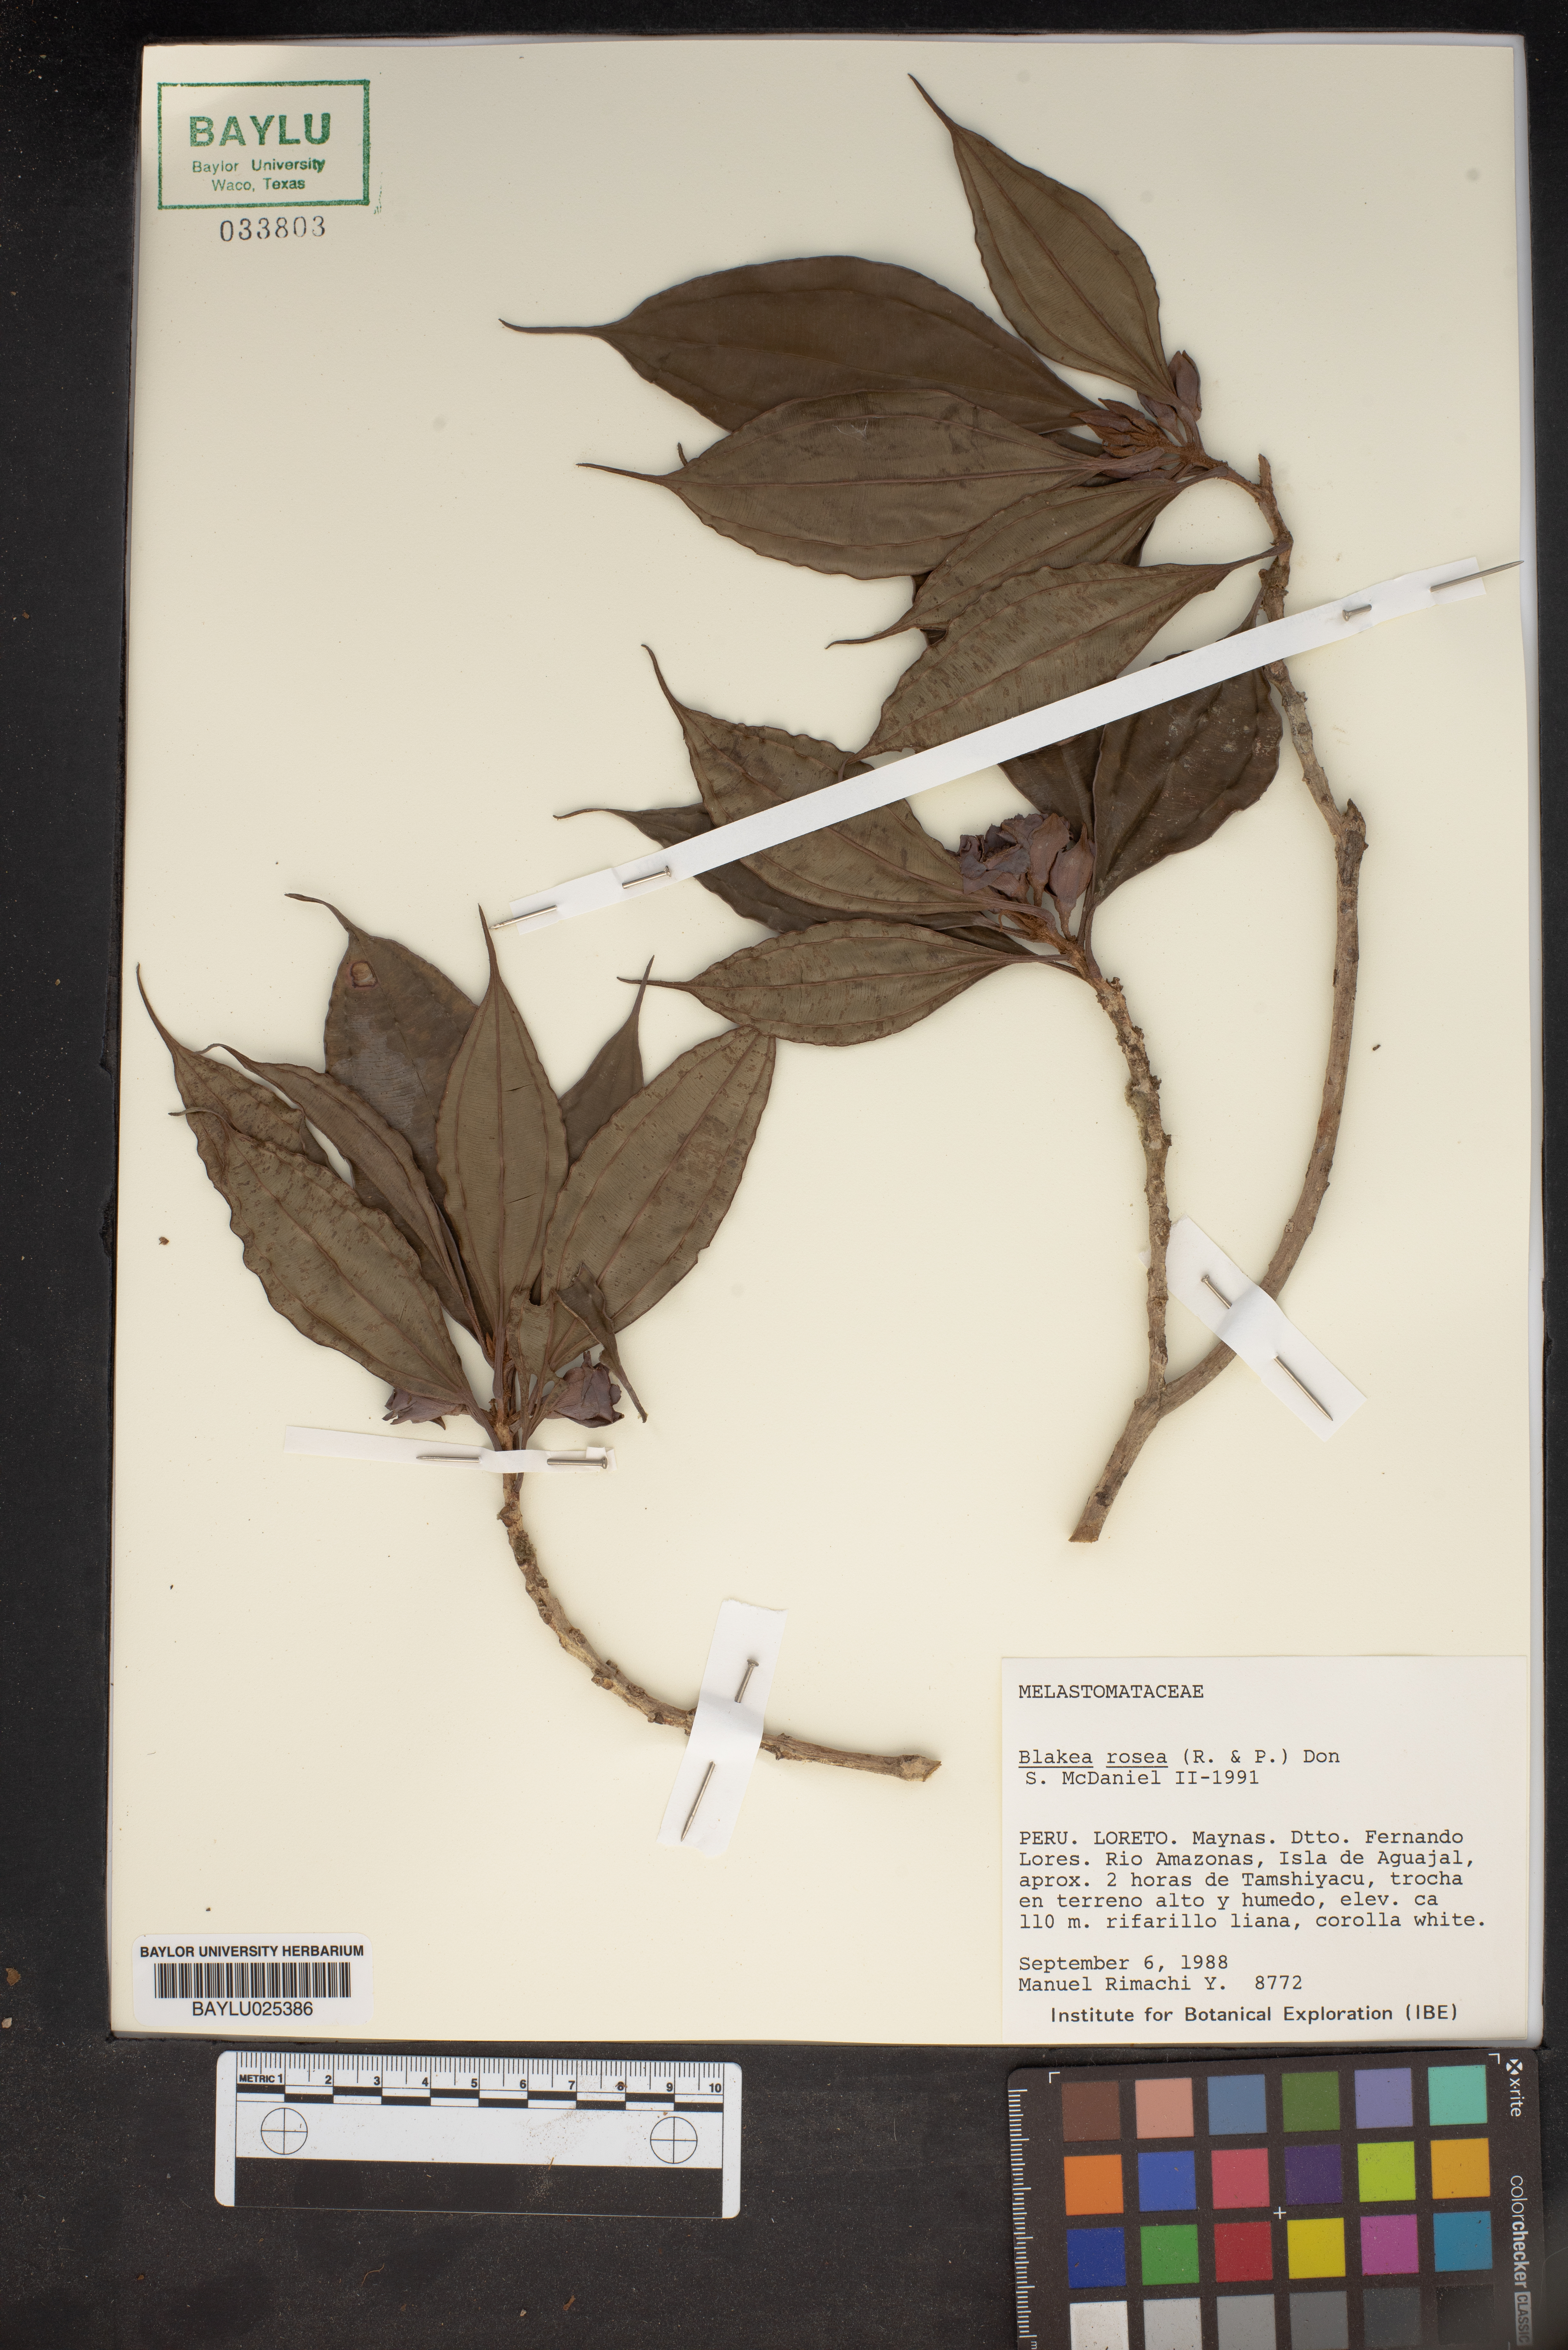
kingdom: Plantae
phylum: Tracheophyta
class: Magnoliopsida
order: Myrtales
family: Melastomataceae
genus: Blakea
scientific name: Blakea rosea
